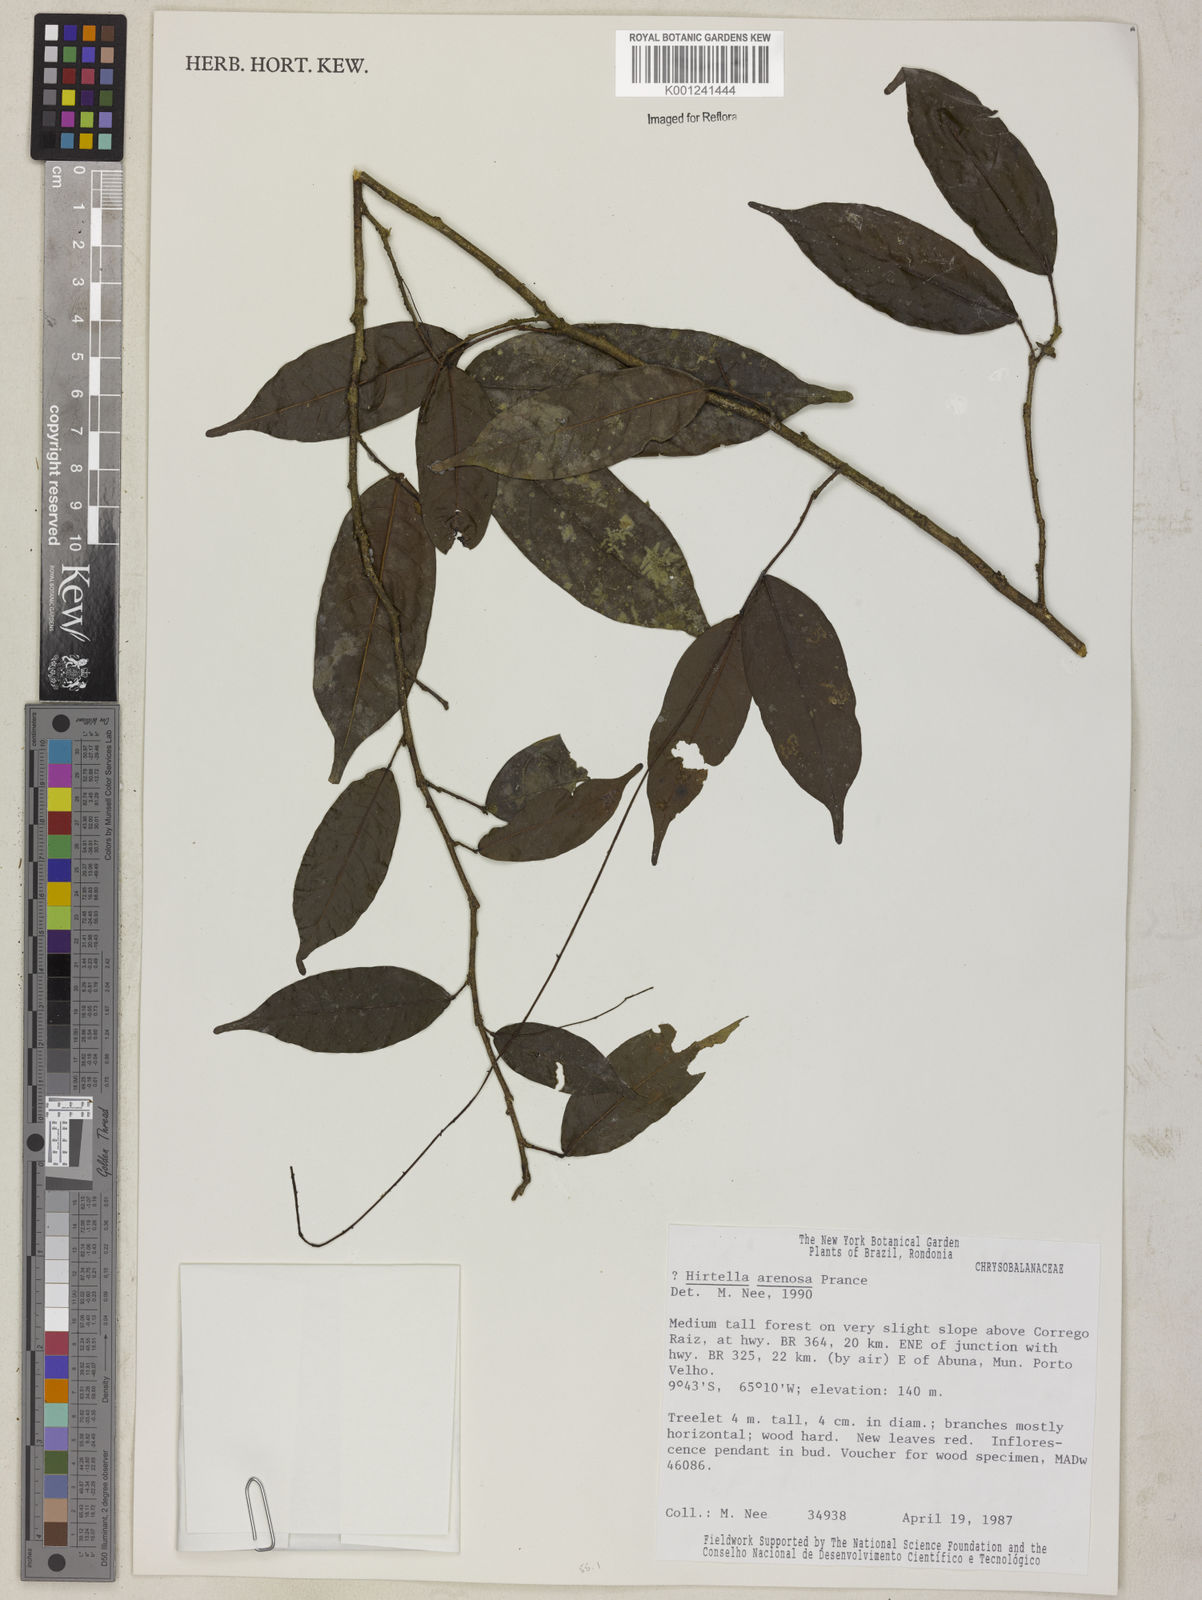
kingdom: Plantae
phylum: Tracheophyta
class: Magnoliopsida
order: Malpighiales
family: Chrysobalanaceae
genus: Hirtella
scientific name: Hirtella arenosa
